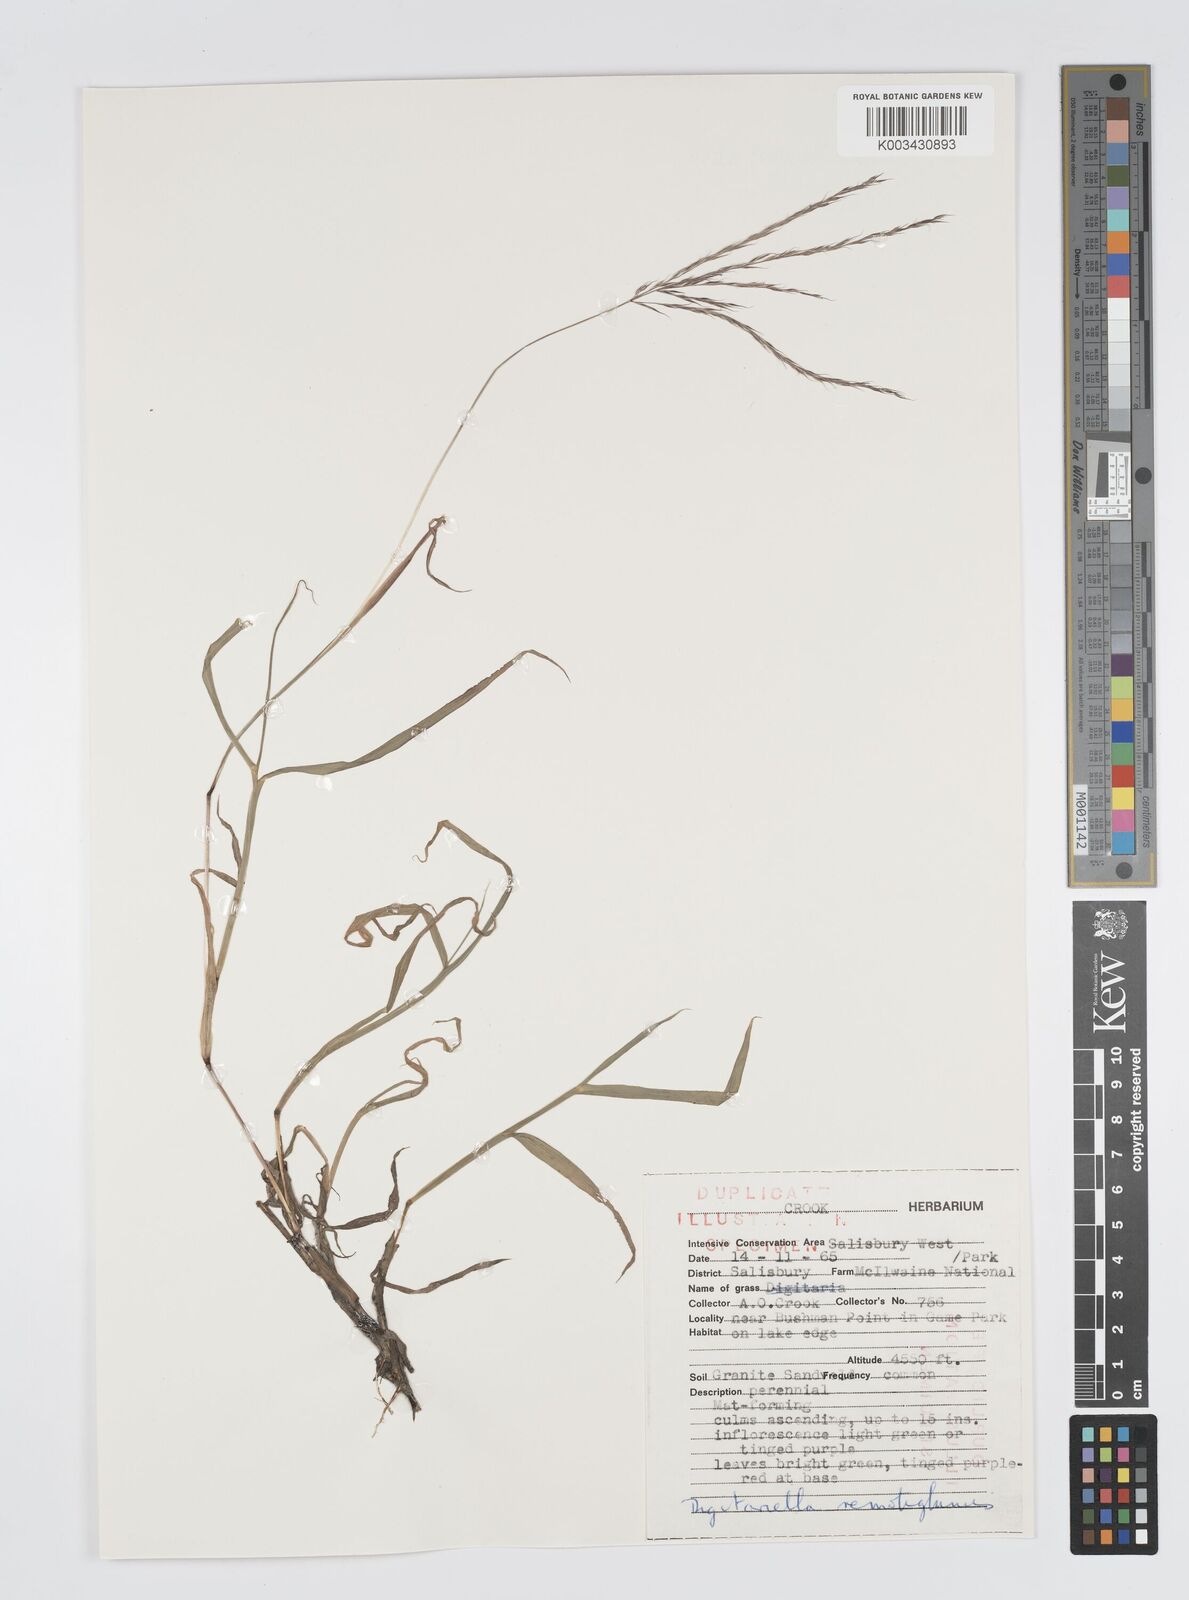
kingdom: Plantae
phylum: Tracheophyta
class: Liliopsida
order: Poales
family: Poaceae
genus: Digitaria
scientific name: Digitaria remotigluma
